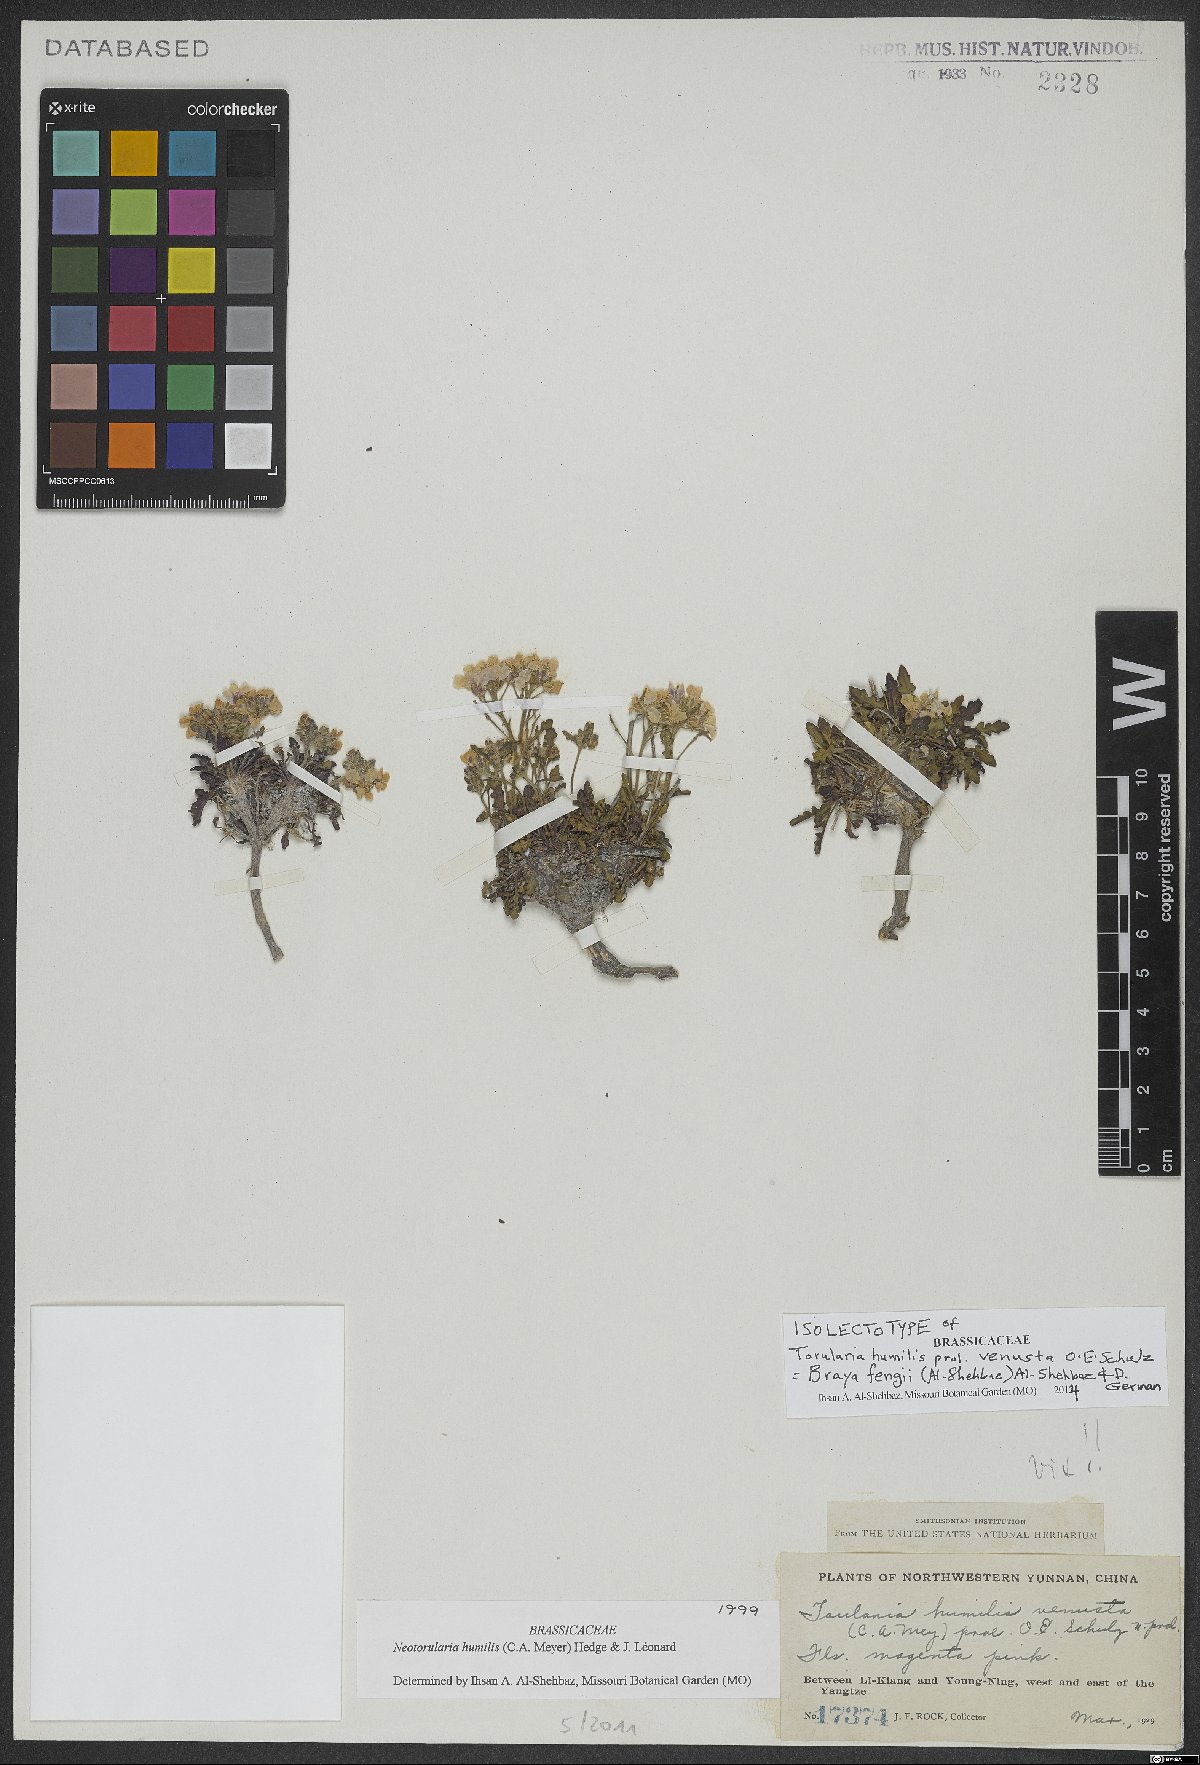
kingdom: Plantae
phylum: Tracheophyta
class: Magnoliopsida
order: Brassicales
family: Brassicaceae
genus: Braya
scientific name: Braya fengii
